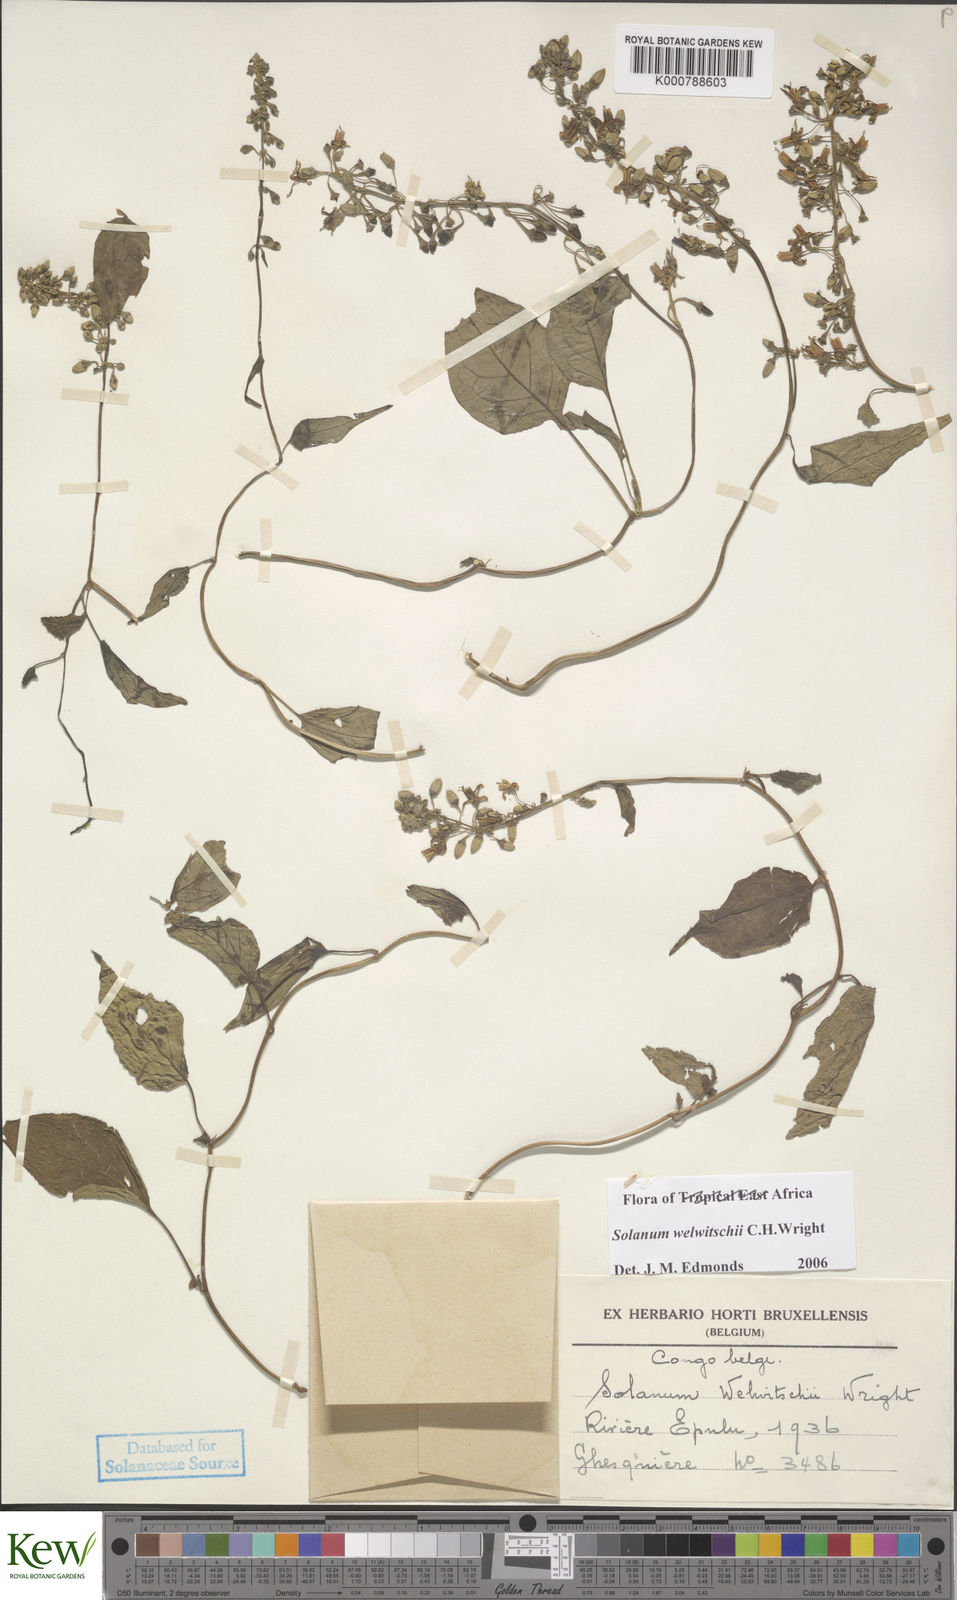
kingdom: Plantae
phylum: Tracheophyta
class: Magnoliopsida
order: Solanales
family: Solanaceae
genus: Solanum
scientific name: Solanum terminale
